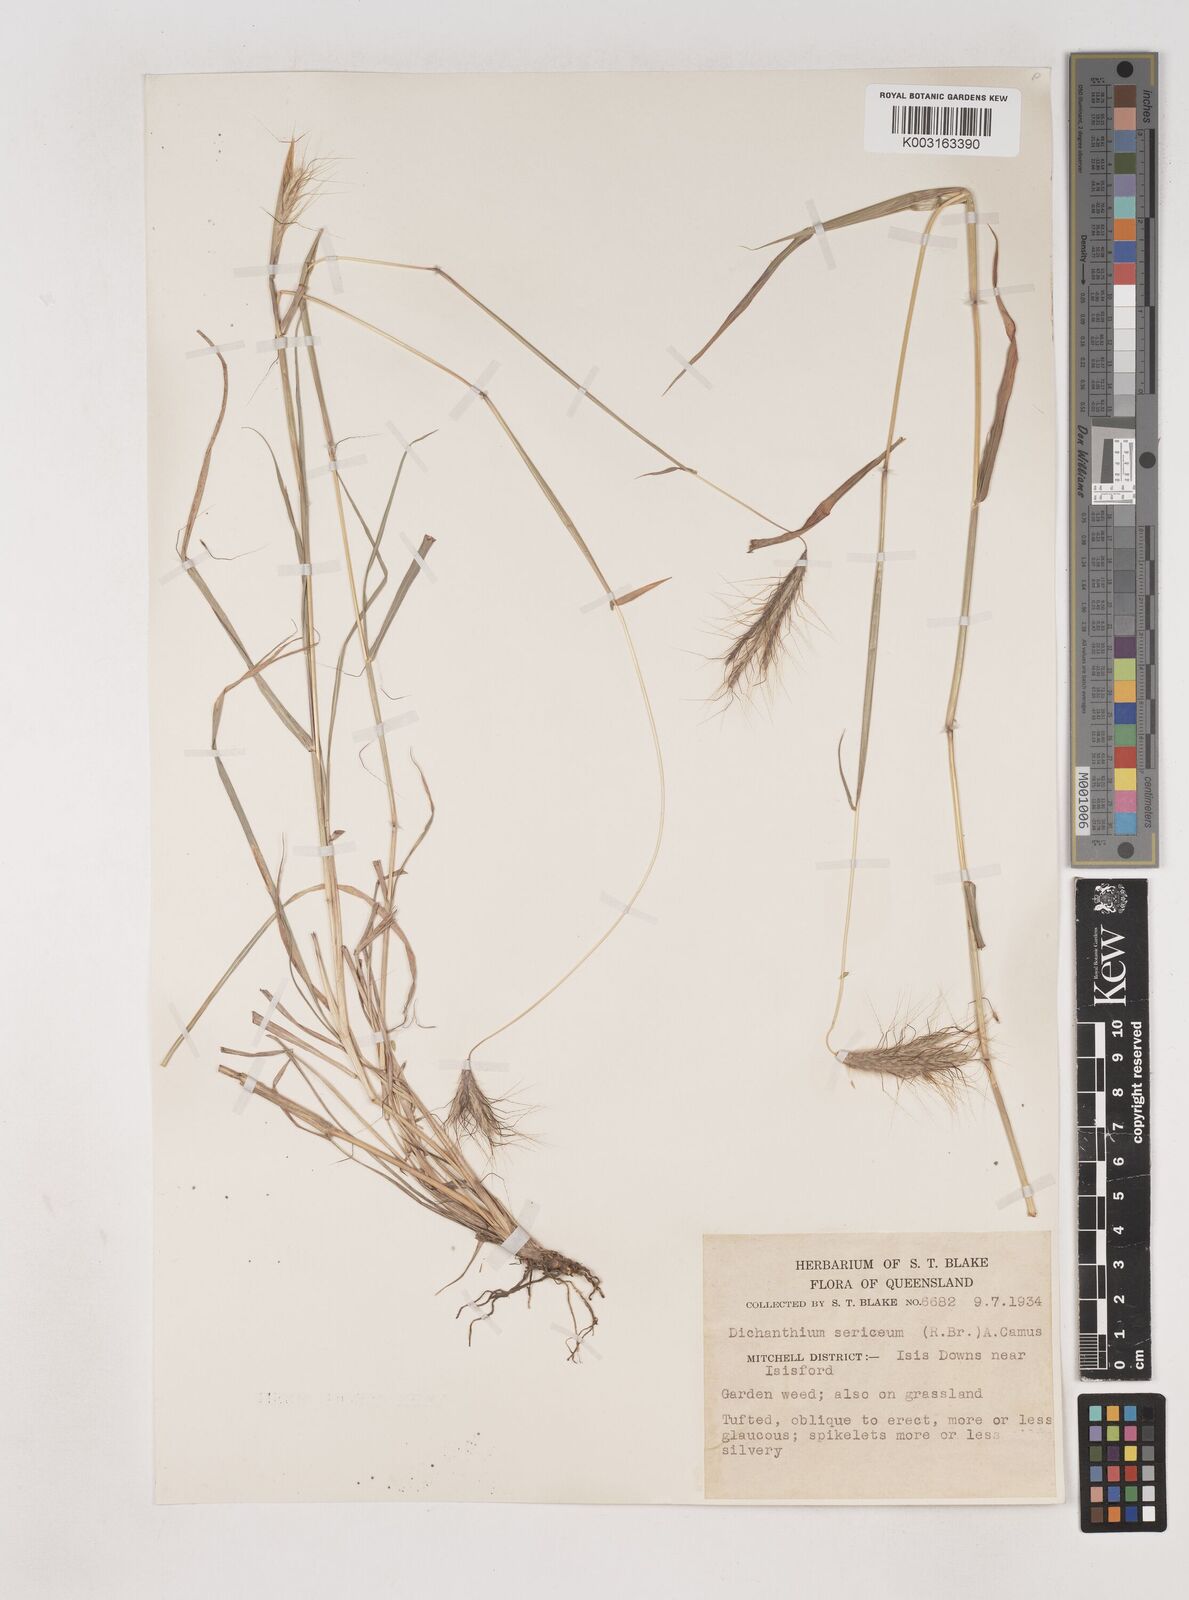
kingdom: Plantae
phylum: Tracheophyta
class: Liliopsida
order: Poales
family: Poaceae
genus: Dichanthium
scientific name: Dichanthium sericeum
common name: Silky bluestem
